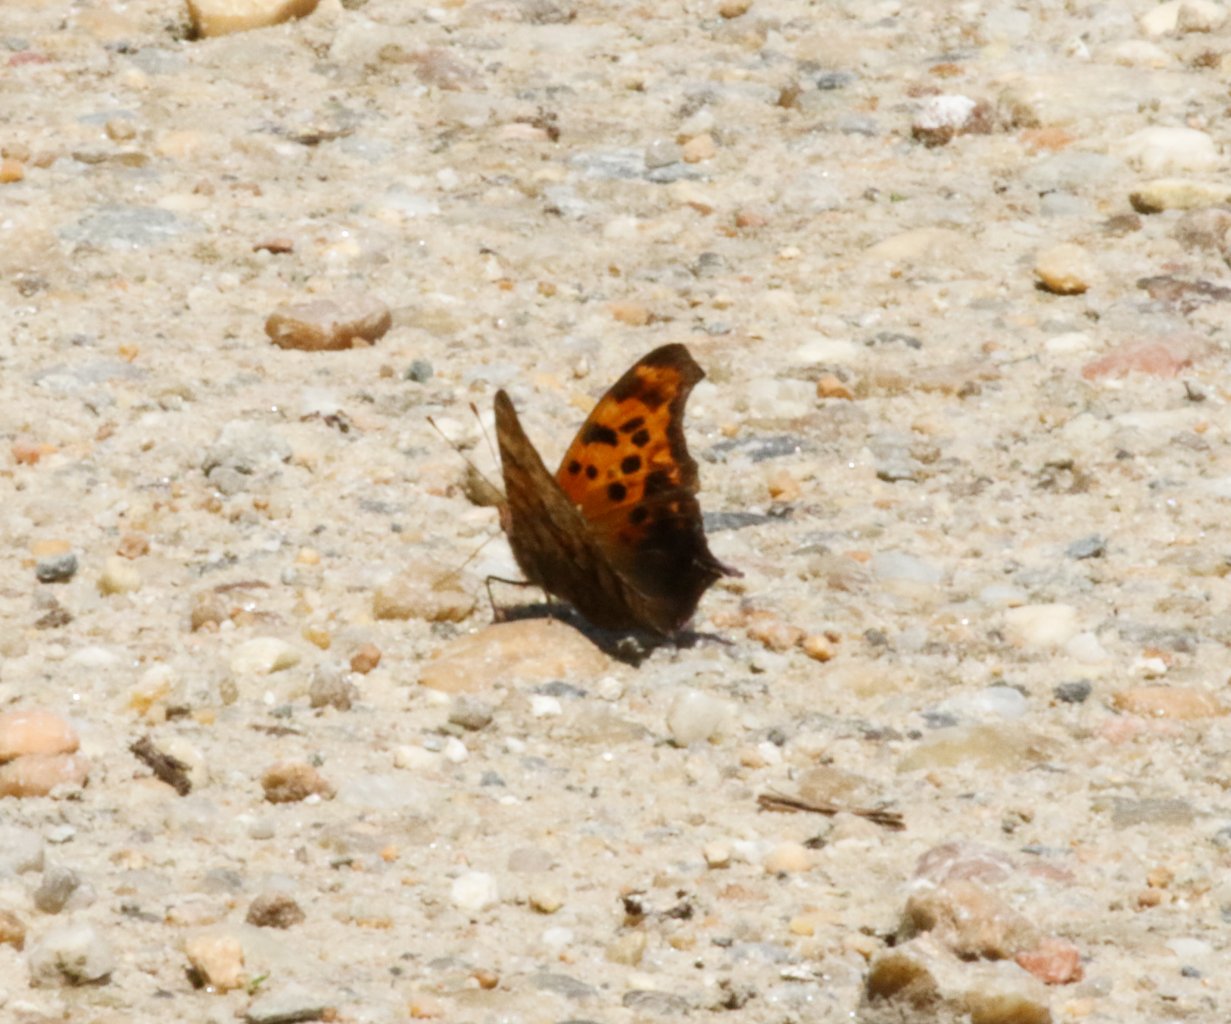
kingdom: Animalia
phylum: Arthropoda
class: Insecta
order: Lepidoptera
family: Nymphalidae
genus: Polygonia
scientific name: Polygonia interrogationis
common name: Question Mark
